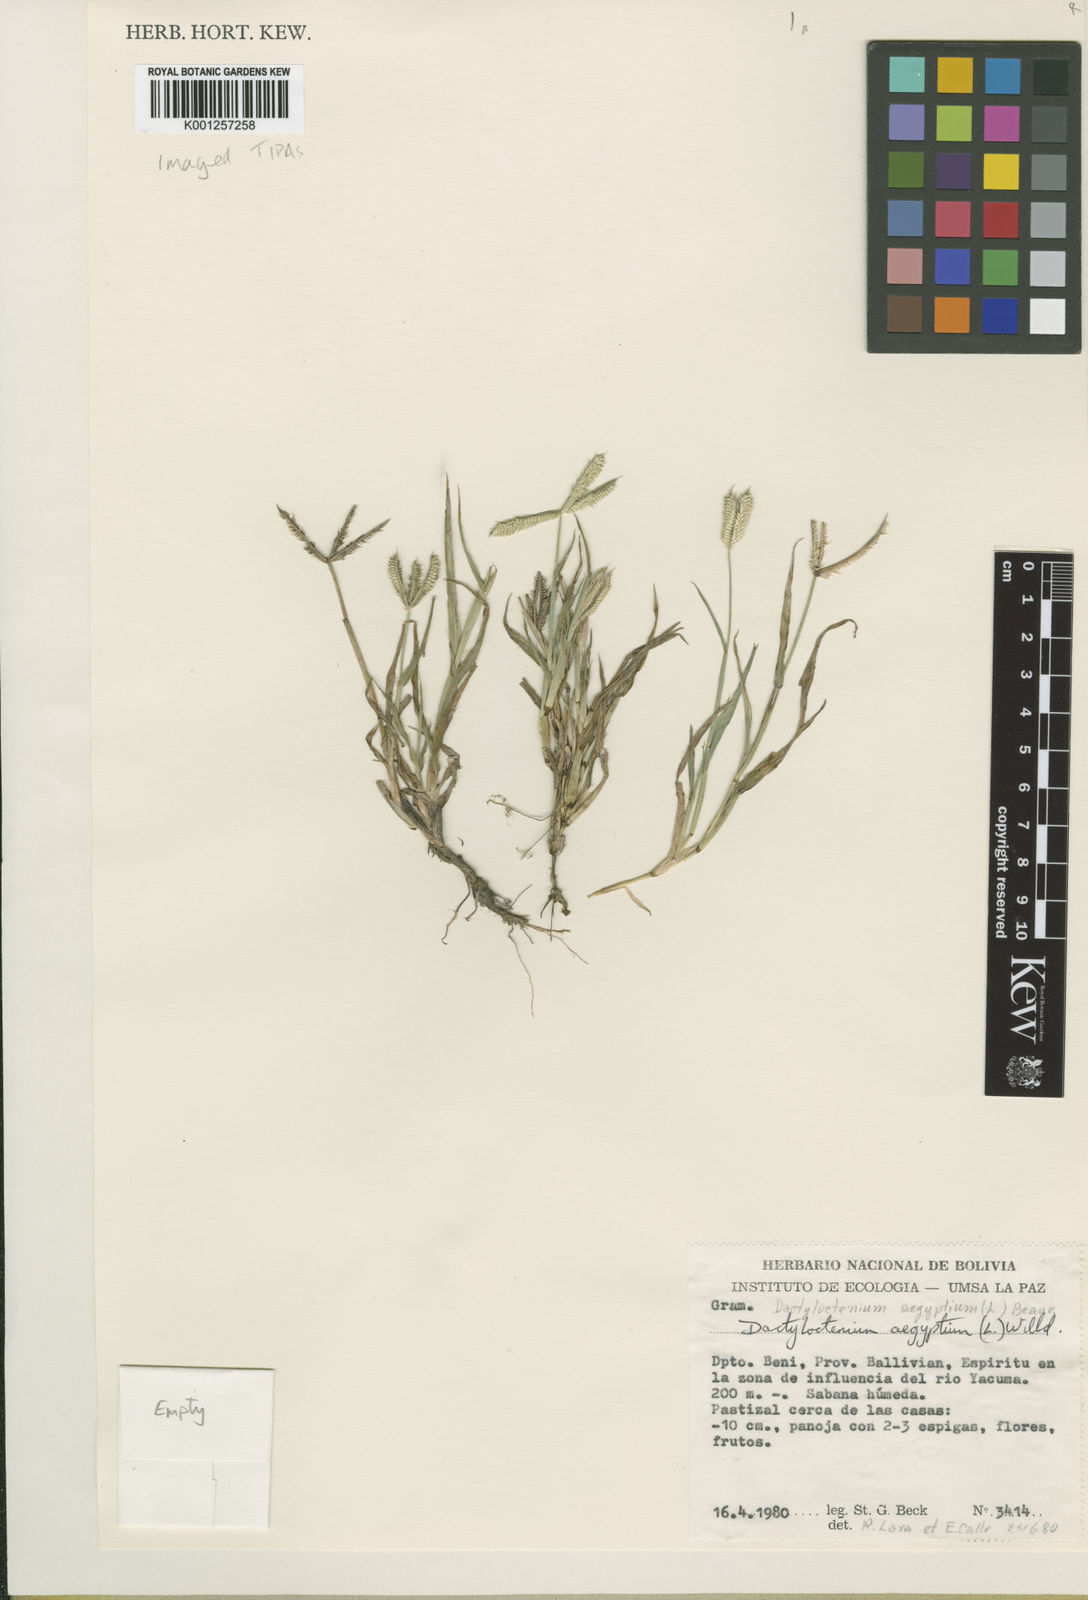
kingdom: Plantae
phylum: Tracheophyta
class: Liliopsida
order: Poales
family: Poaceae
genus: Dactyloctenium
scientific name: Dactyloctenium aegyptium
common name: Egyptian grass
